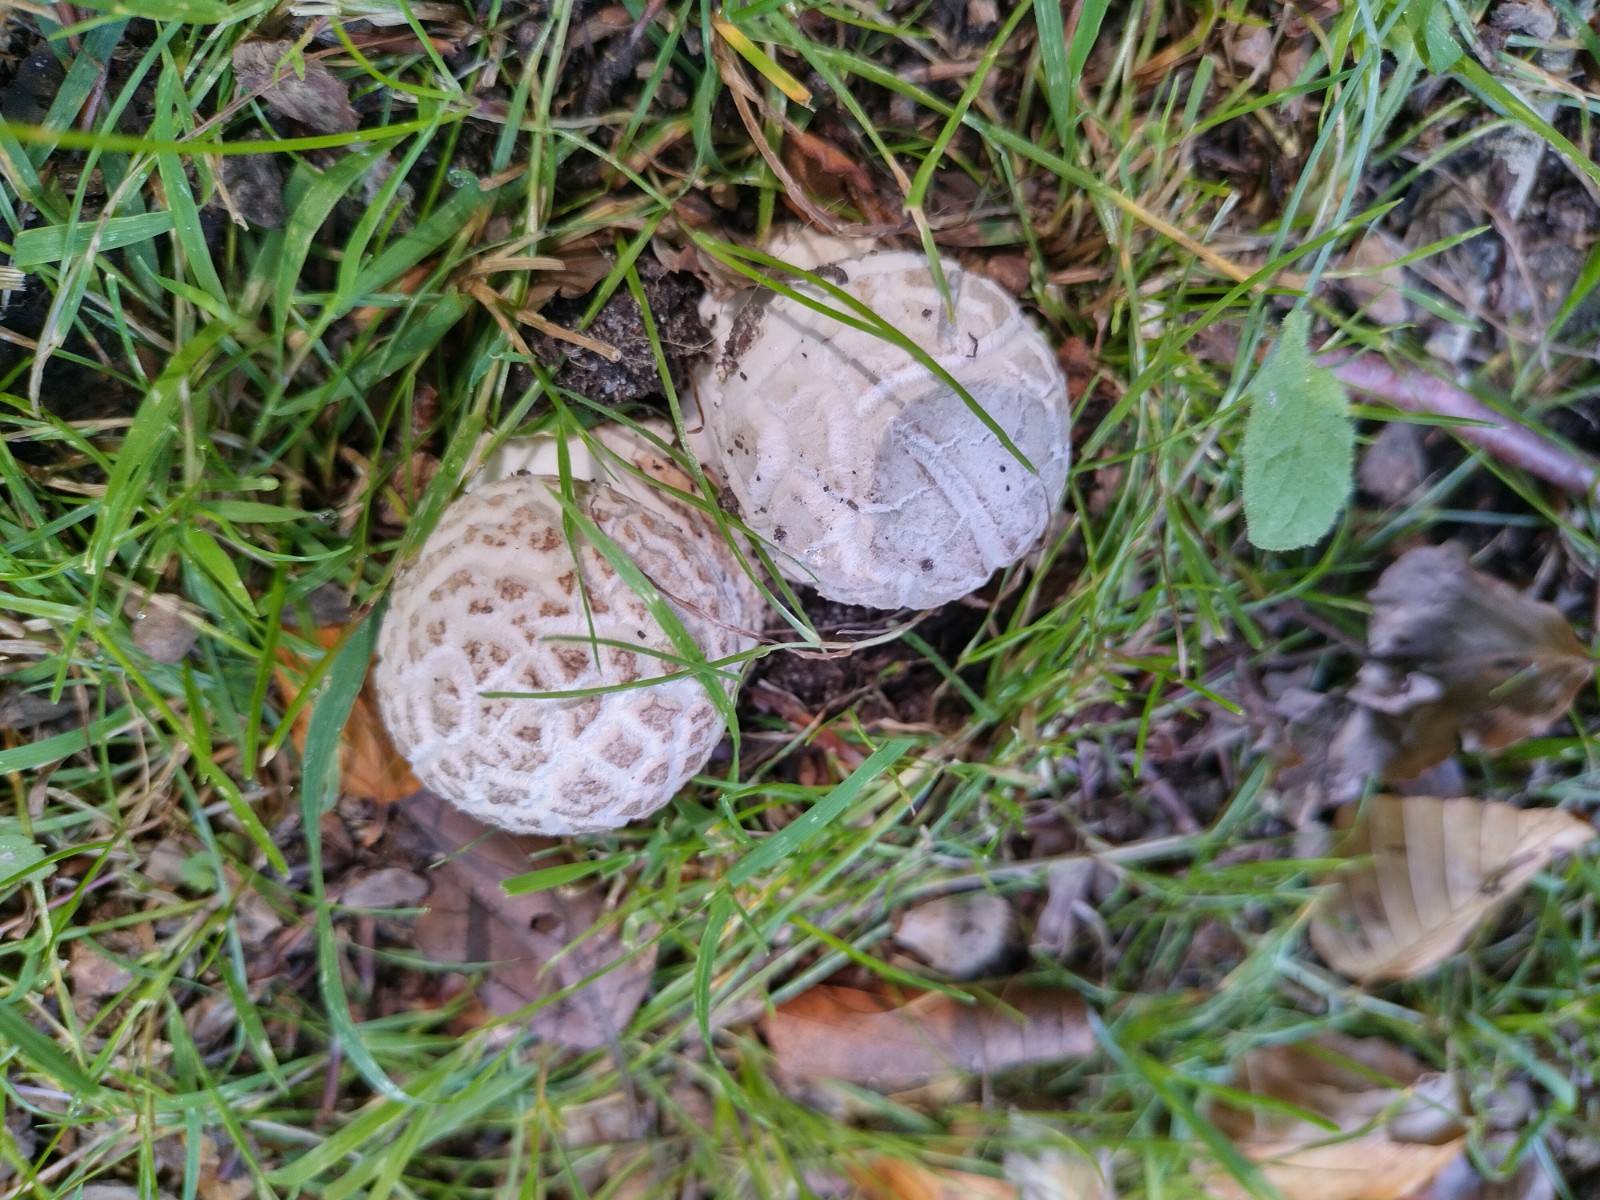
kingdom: Fungi
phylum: Basidiomycota
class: Agaricomycetes
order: Agaricales
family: Amanitaceae
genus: Amanita
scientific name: Amanita
